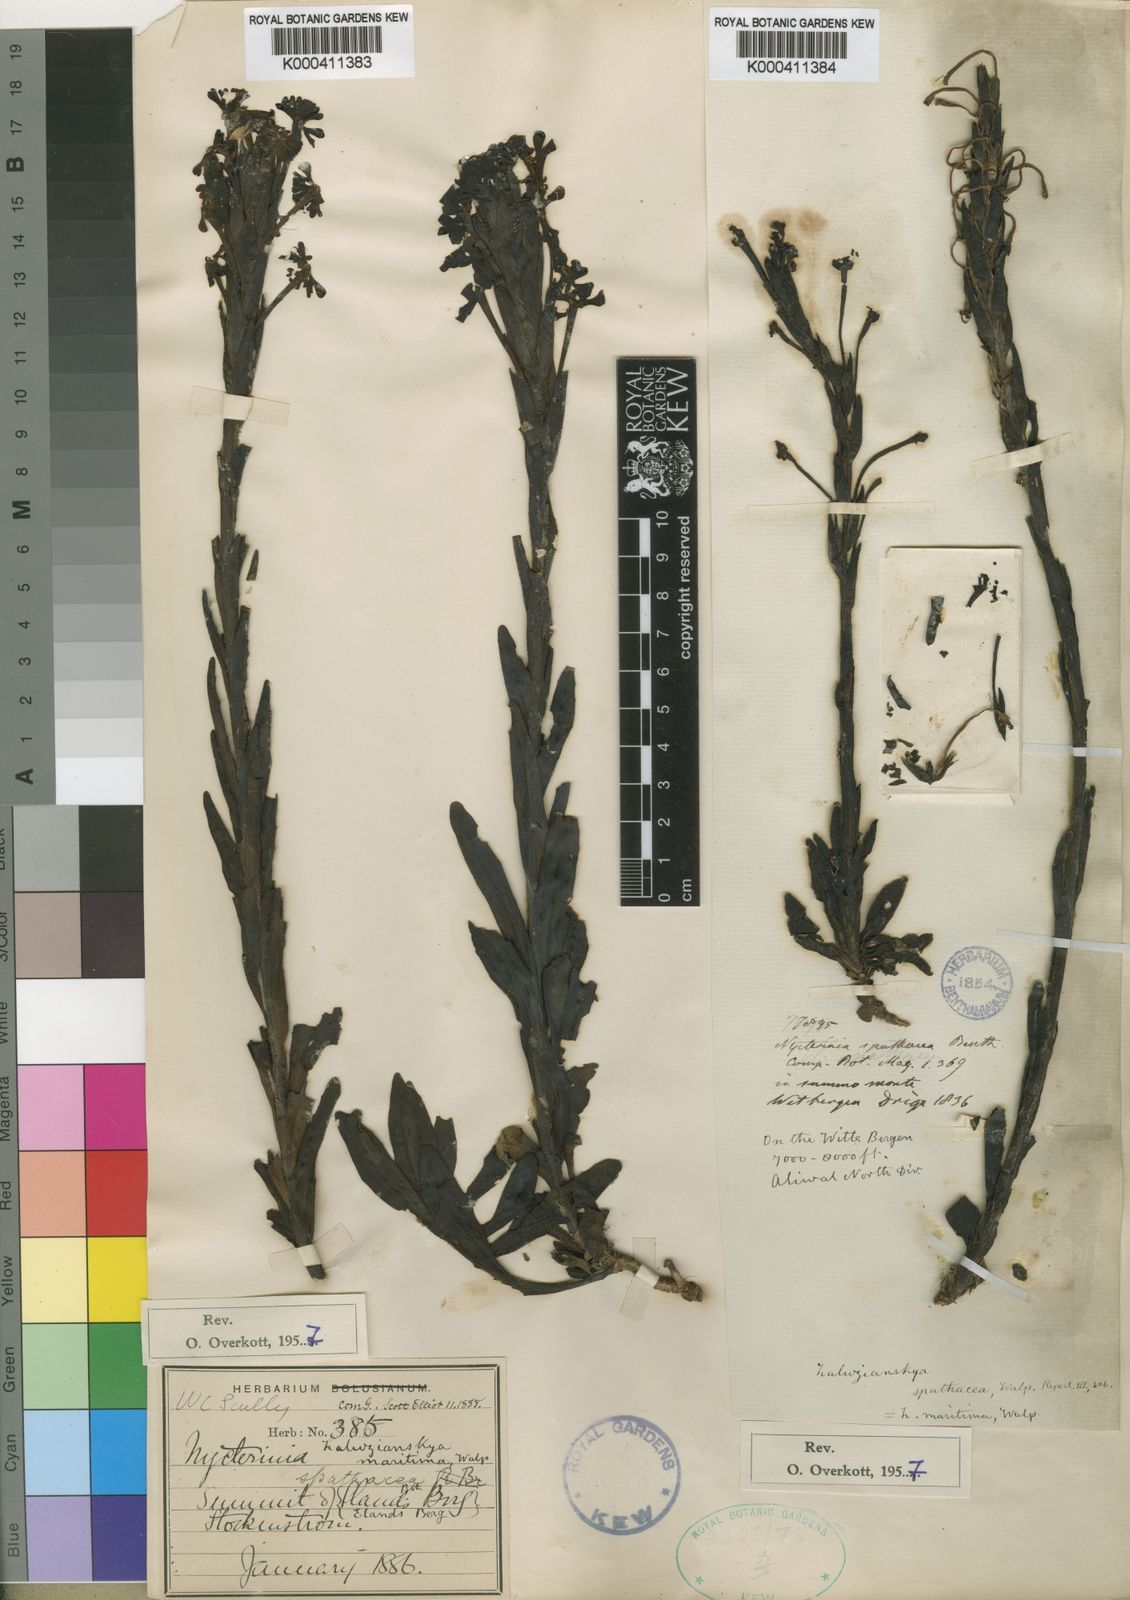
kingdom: Plantae
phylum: Tracheophyta
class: Magnoliopsida
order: Lamiales
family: Scrophulariaceae
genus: Zaluzianskya
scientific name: Zaluzianskya spathacea
